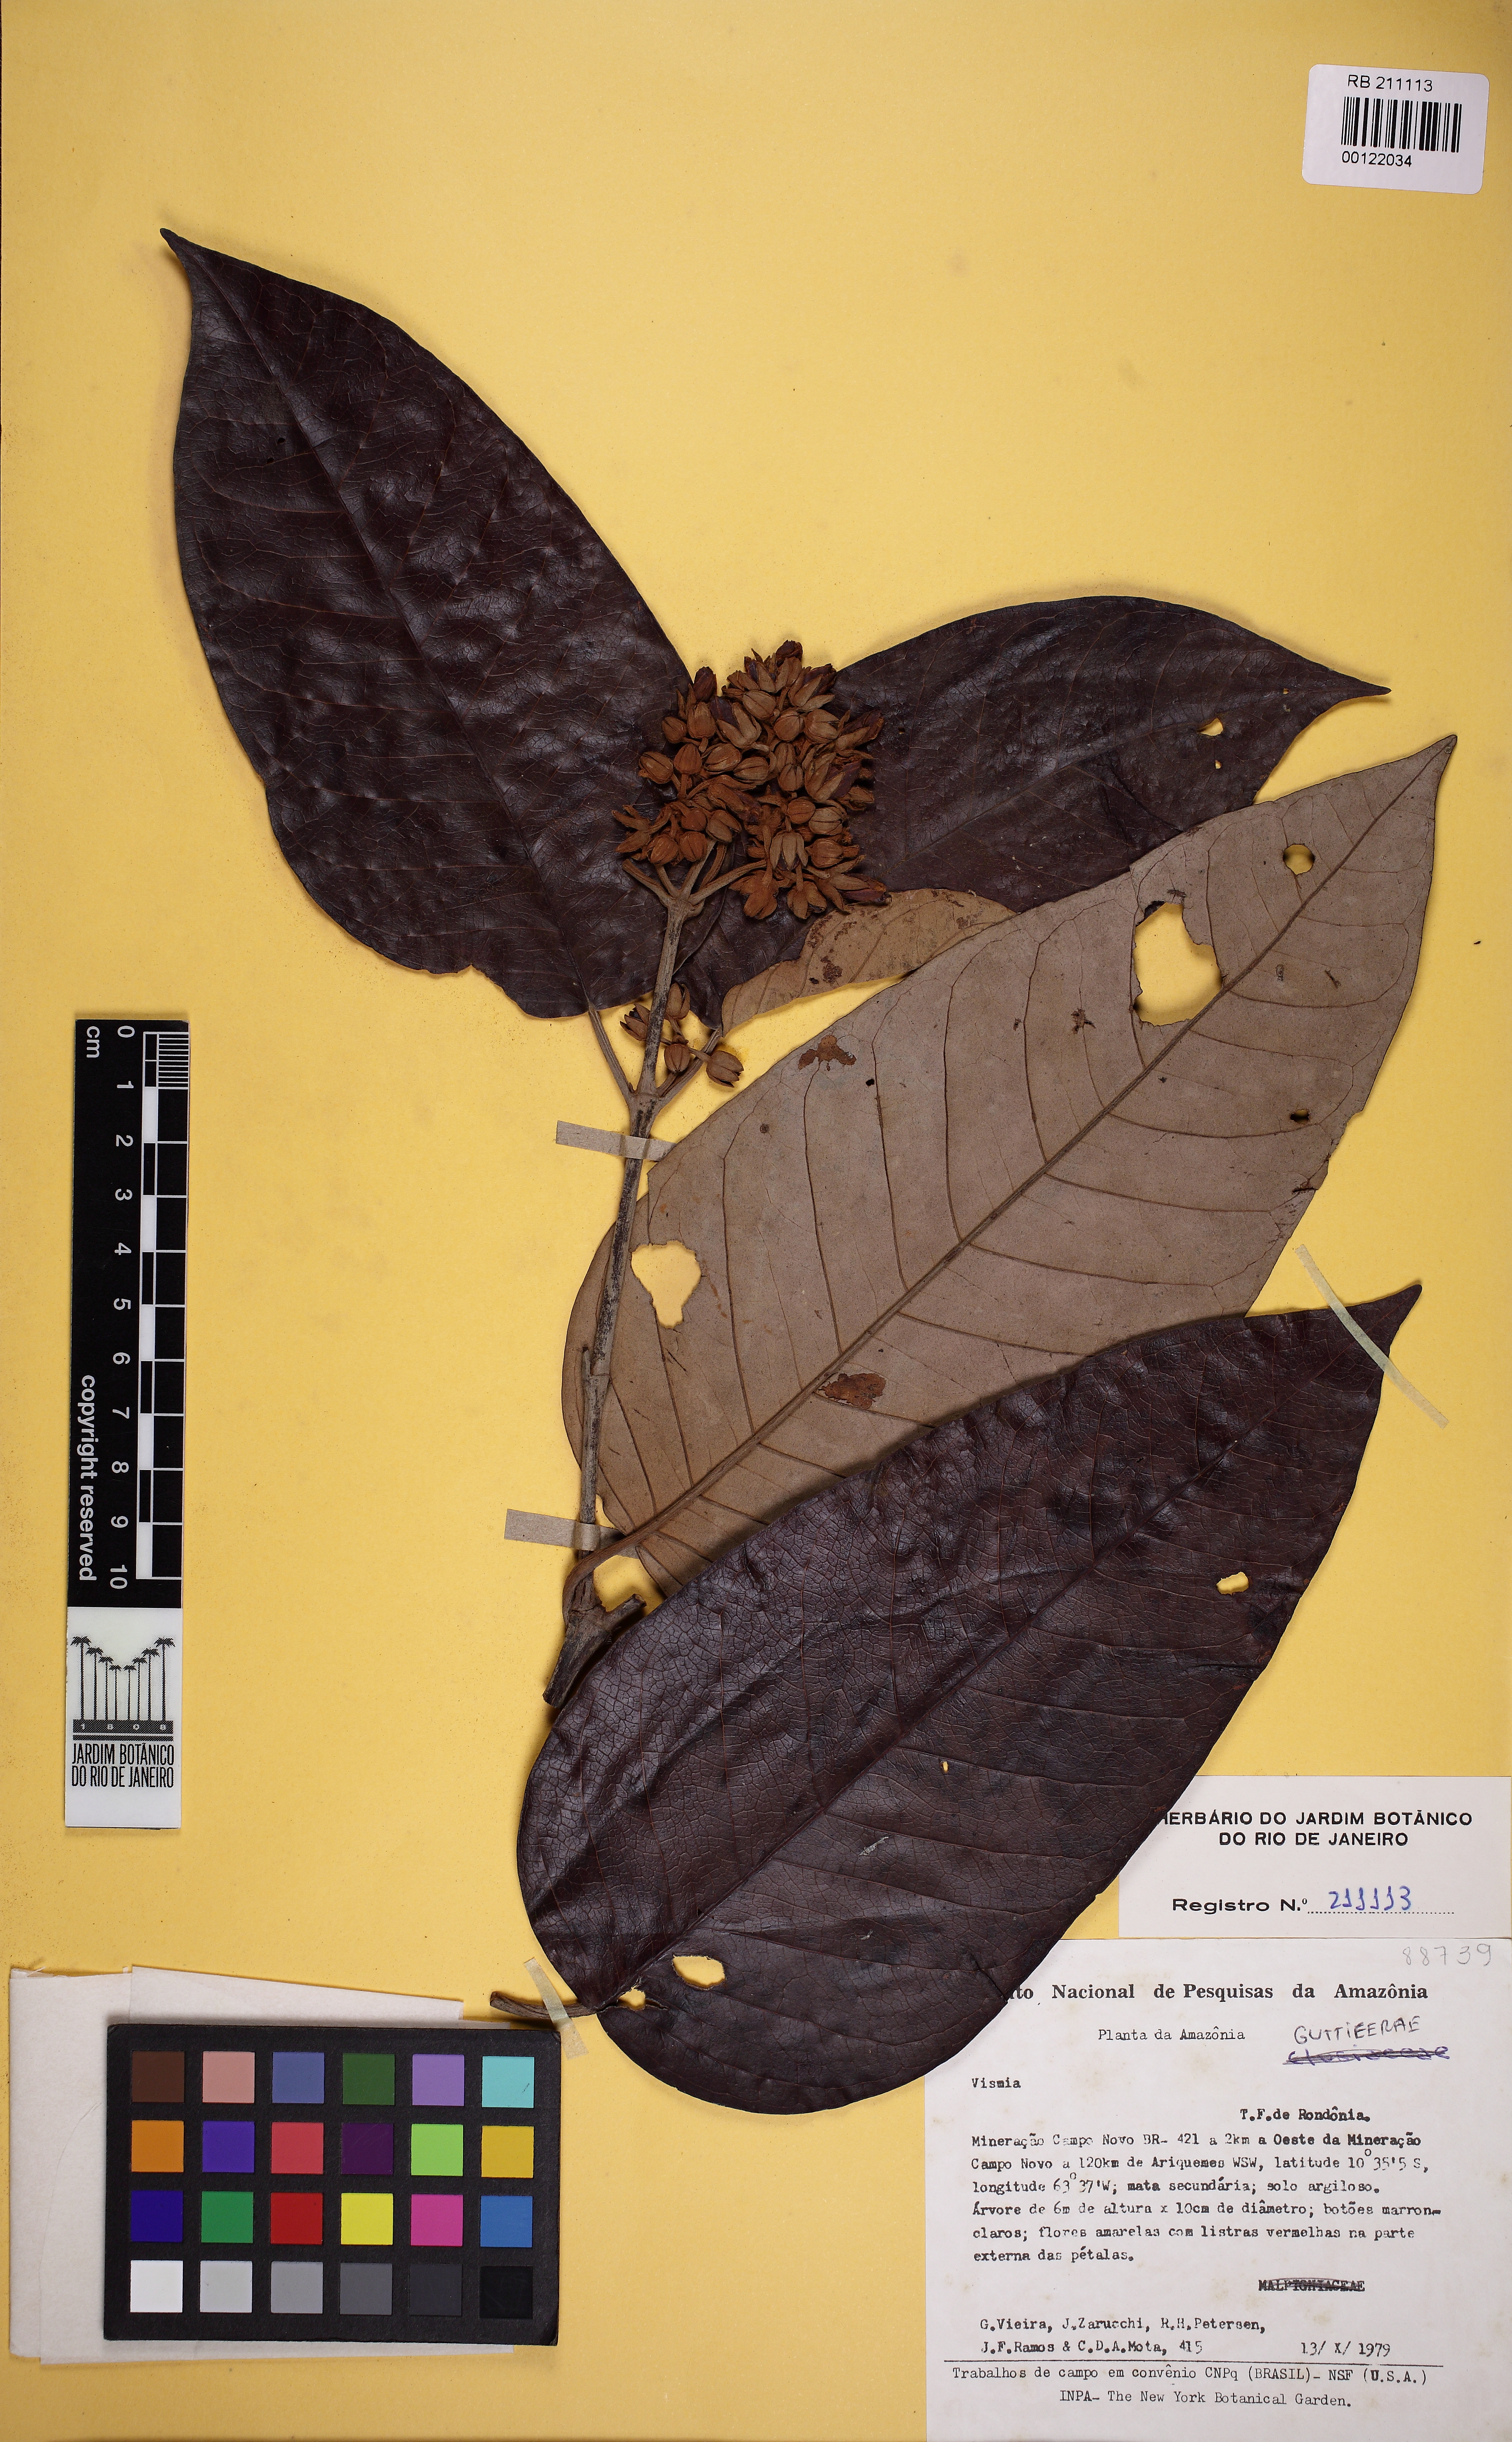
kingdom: Plantae
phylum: Tracheophyta
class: Magnoliopsida
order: Malpighiales
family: Hypericaceae
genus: Vismia
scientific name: Vismia ferruginea
